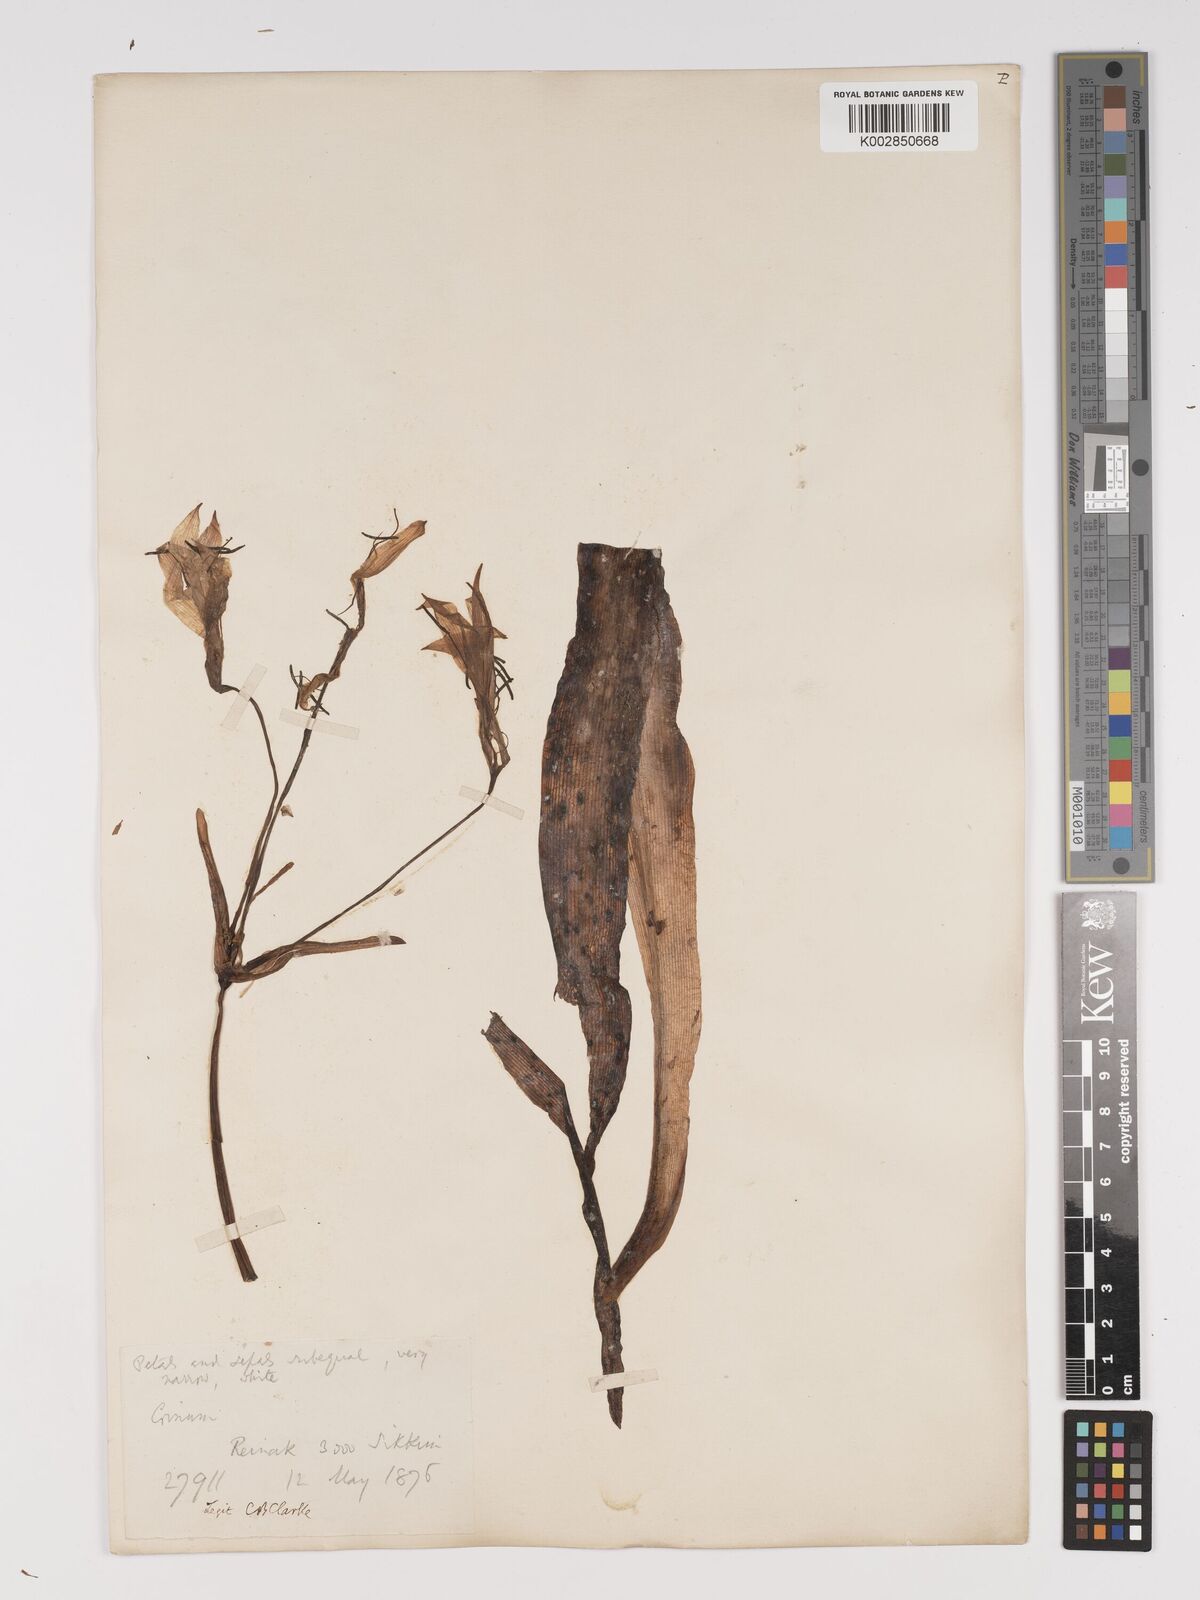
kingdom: Plantae
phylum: Tracheophyta
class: Liliopsida
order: Asparagales
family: Amaryllidaceae
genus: Crinum
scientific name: Crinum amoenum
